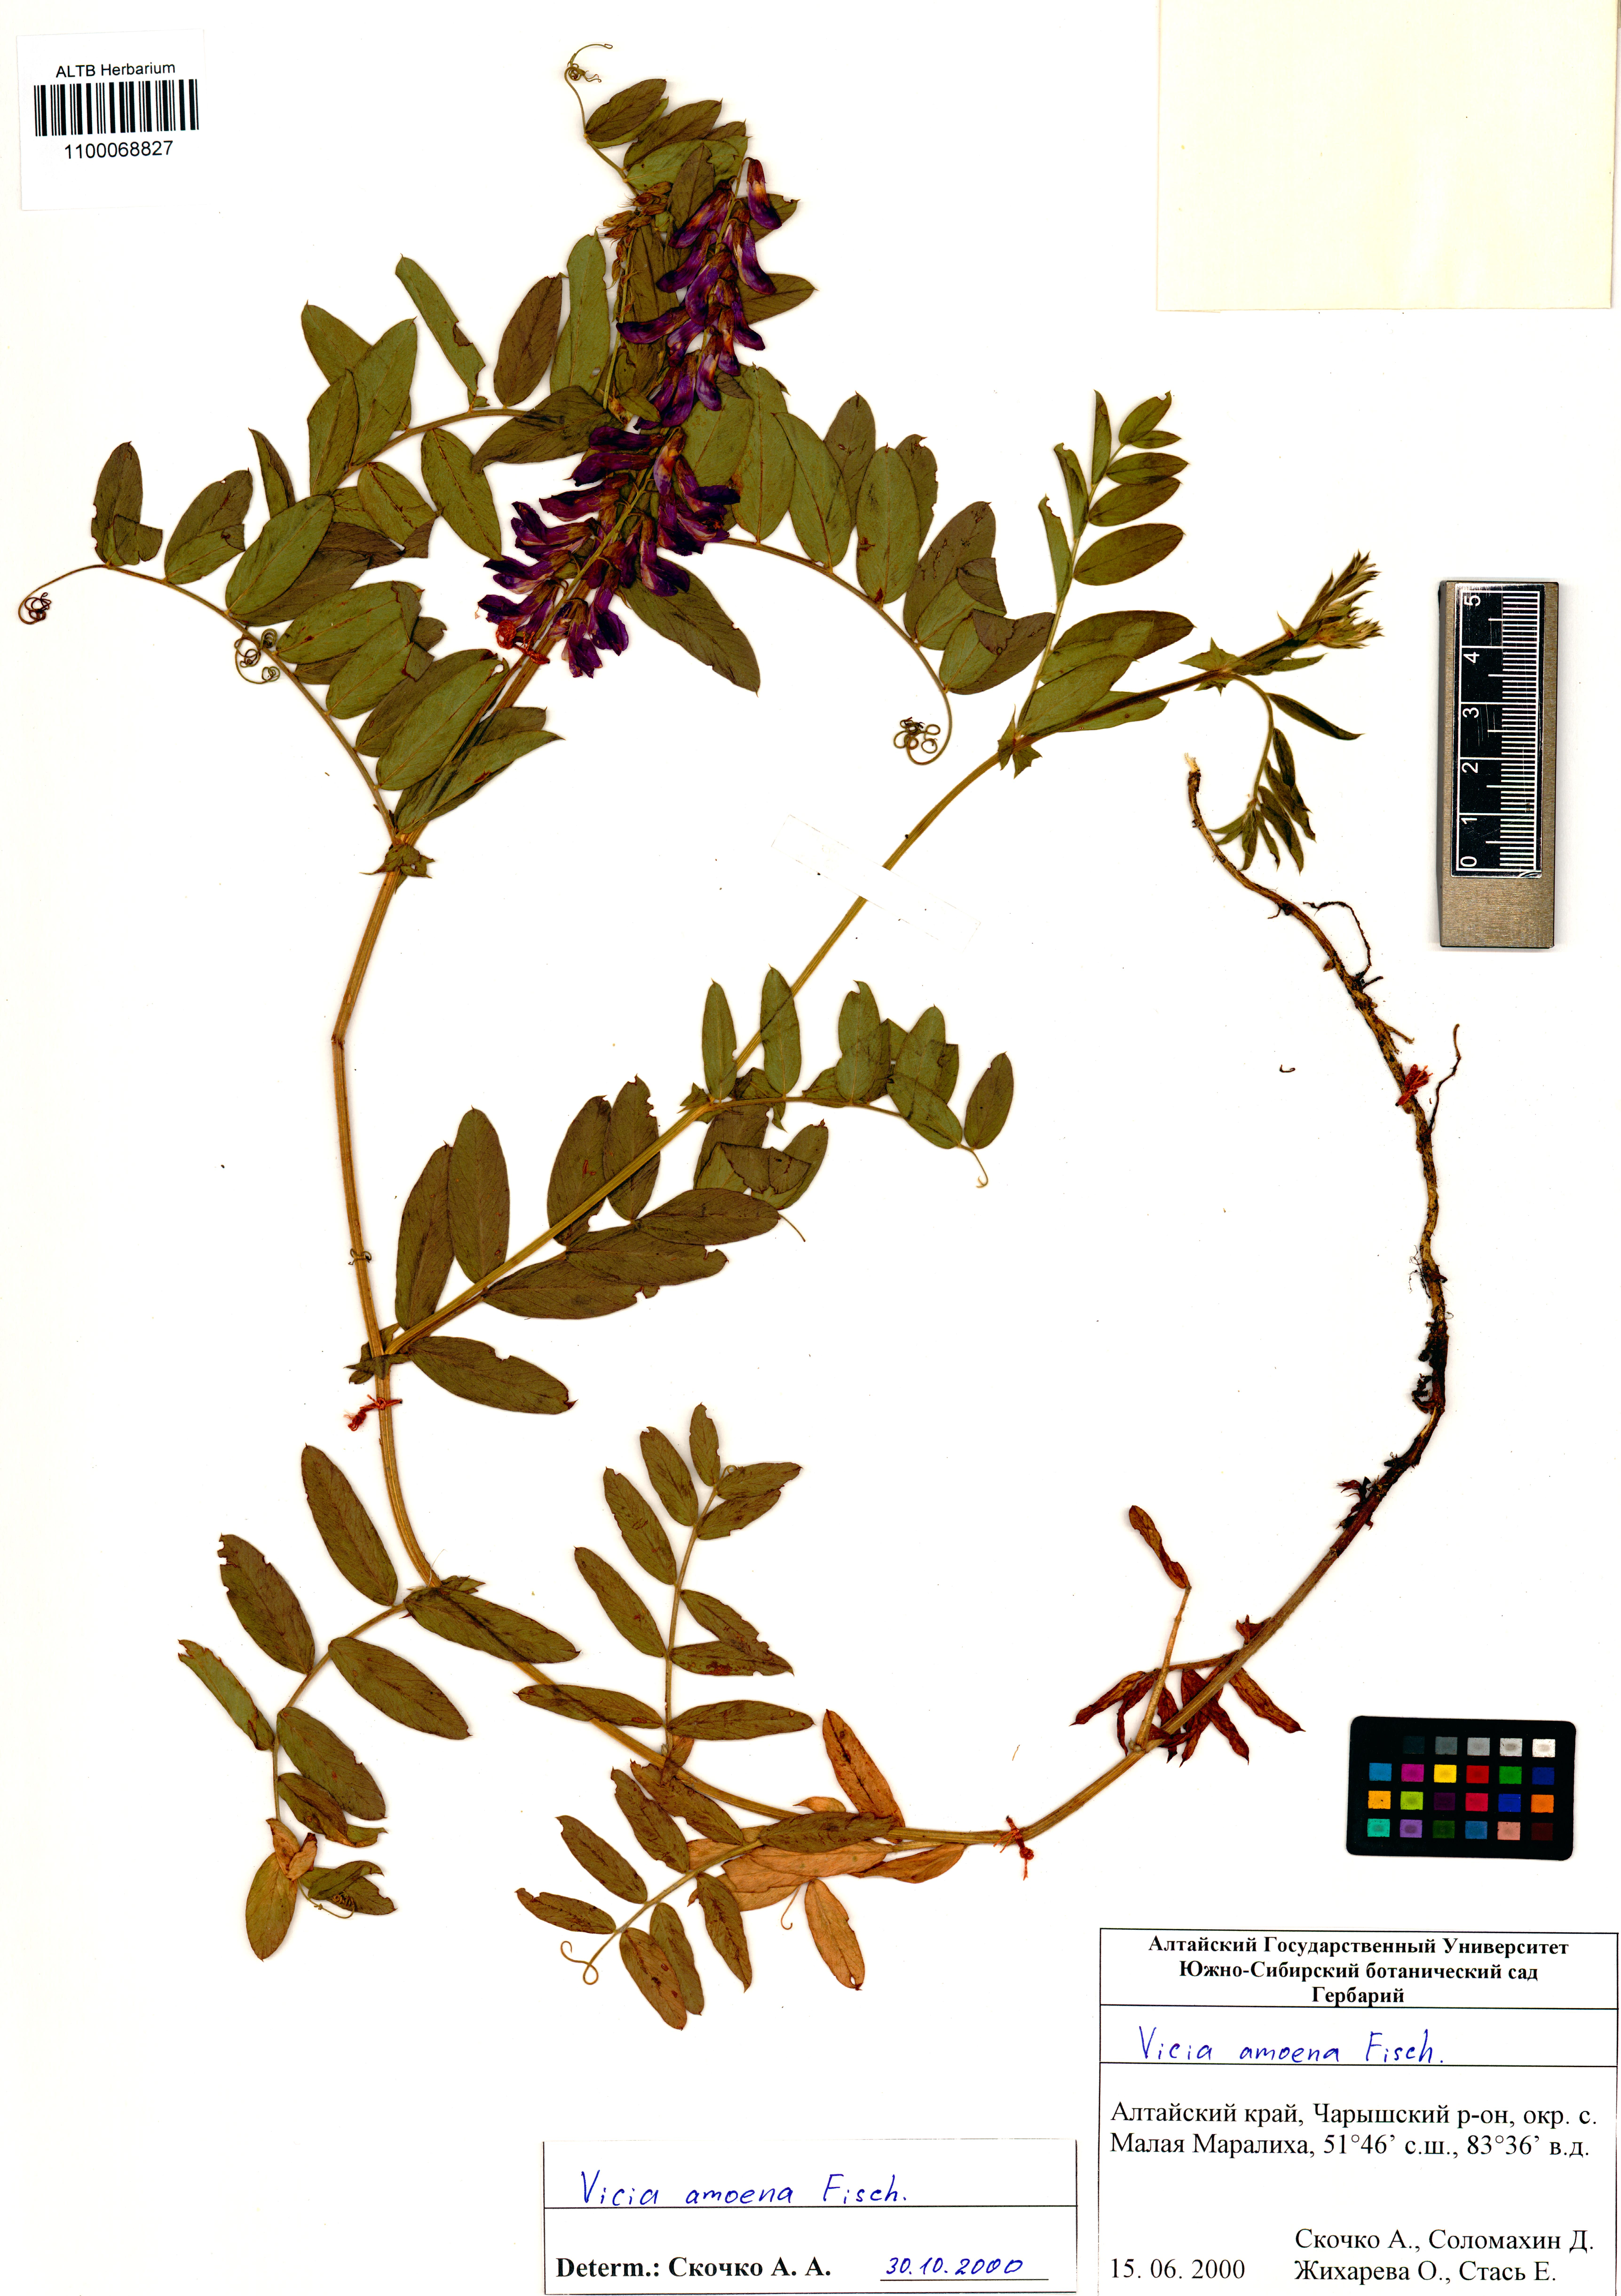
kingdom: Plantae
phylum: Tracheophyta
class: Magnoliopsida
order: Fabales
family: Fabaceae
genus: Vicia
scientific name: Vicia amoena
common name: Cheder ebs
